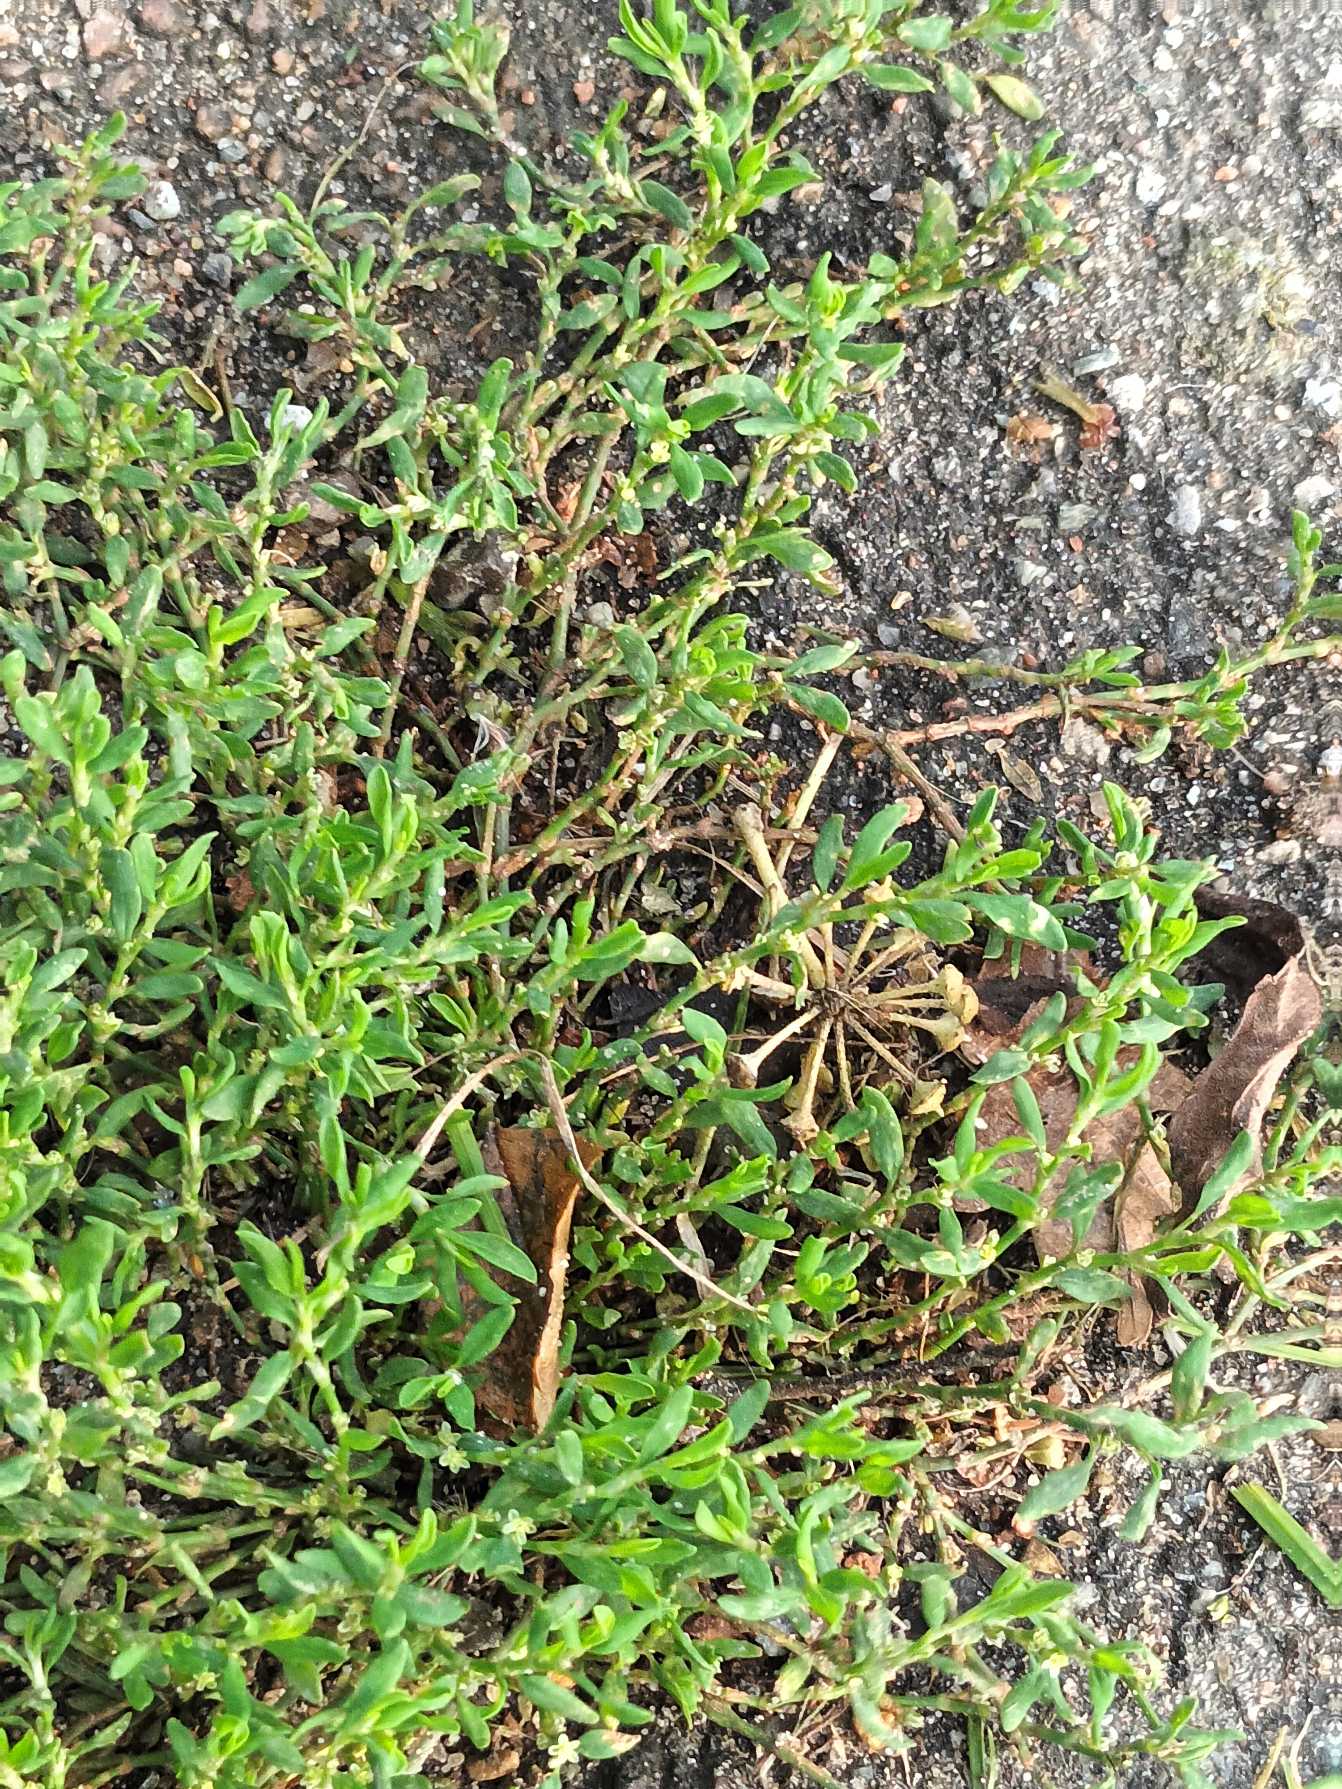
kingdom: Plantae
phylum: Tracheophyta
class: Magnoliopsida
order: Caryophyllales
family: Polygonaceae
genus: Polygonum
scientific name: Polygonum arenastrum
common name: Liggende vej-pileurt
